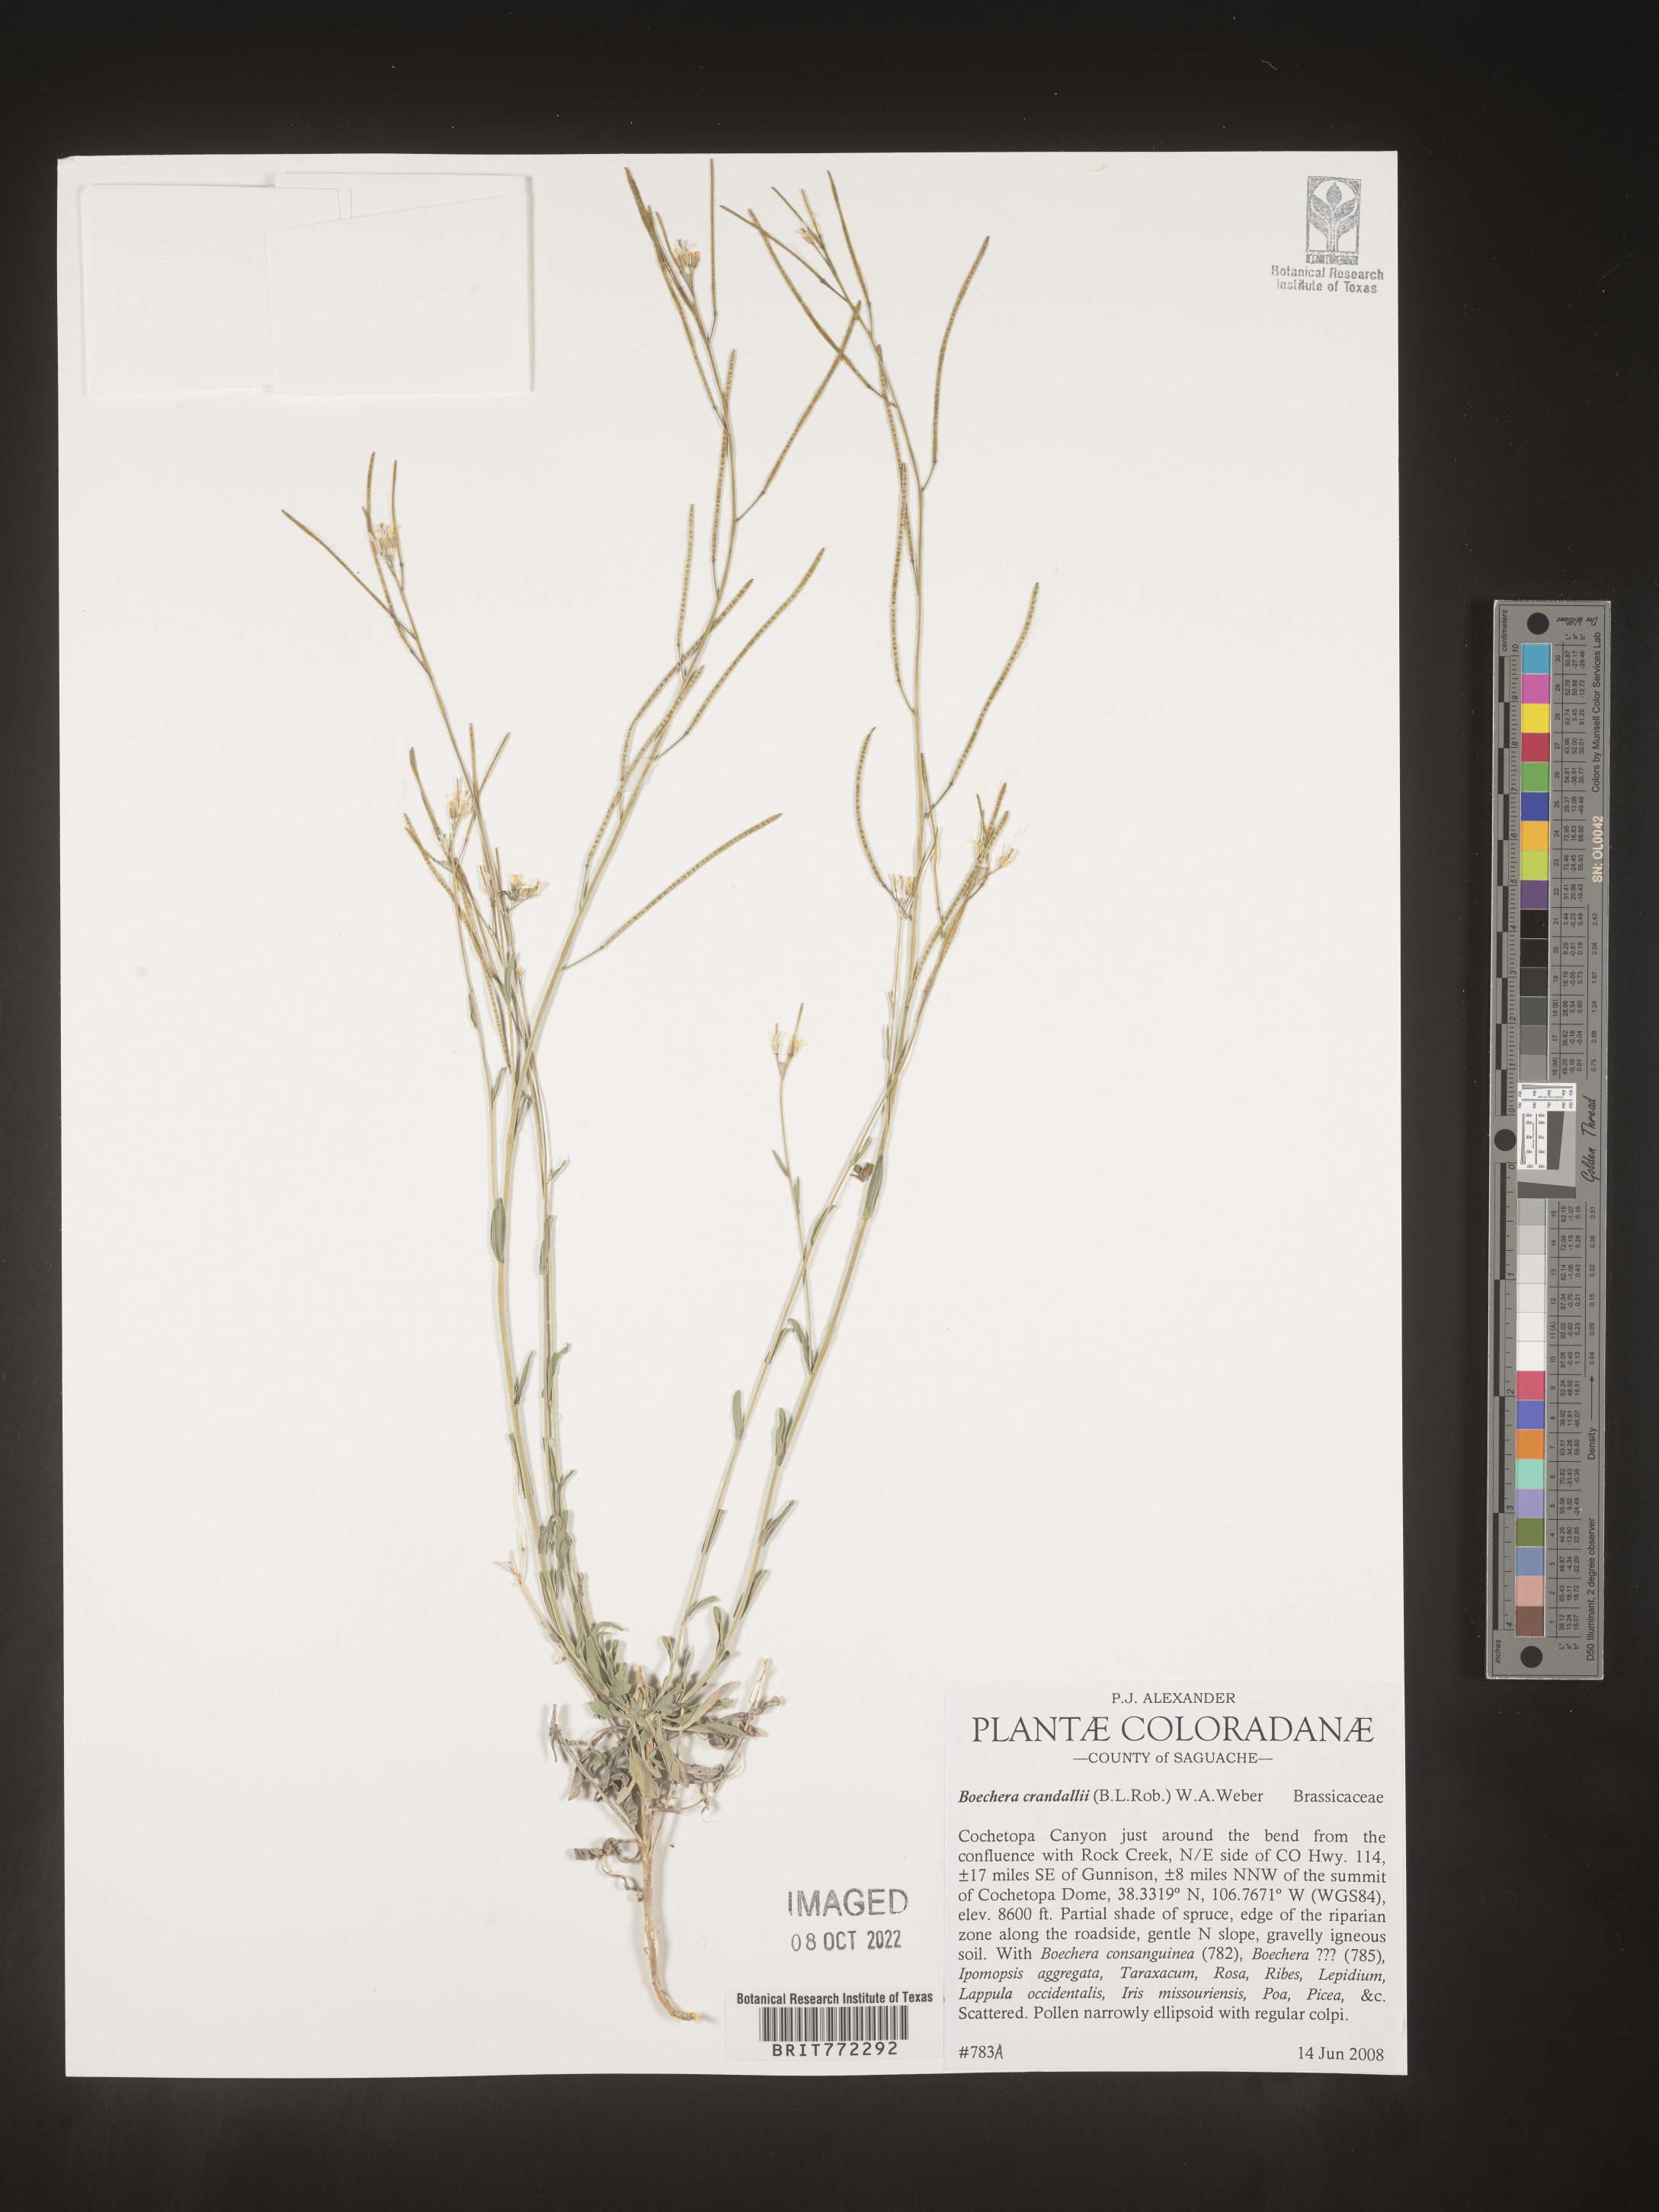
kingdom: Plantae
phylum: Tracheophyta
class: Magnoliopsida
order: Brassicales
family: Brassicaceae
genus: Boechera
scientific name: Boechera
